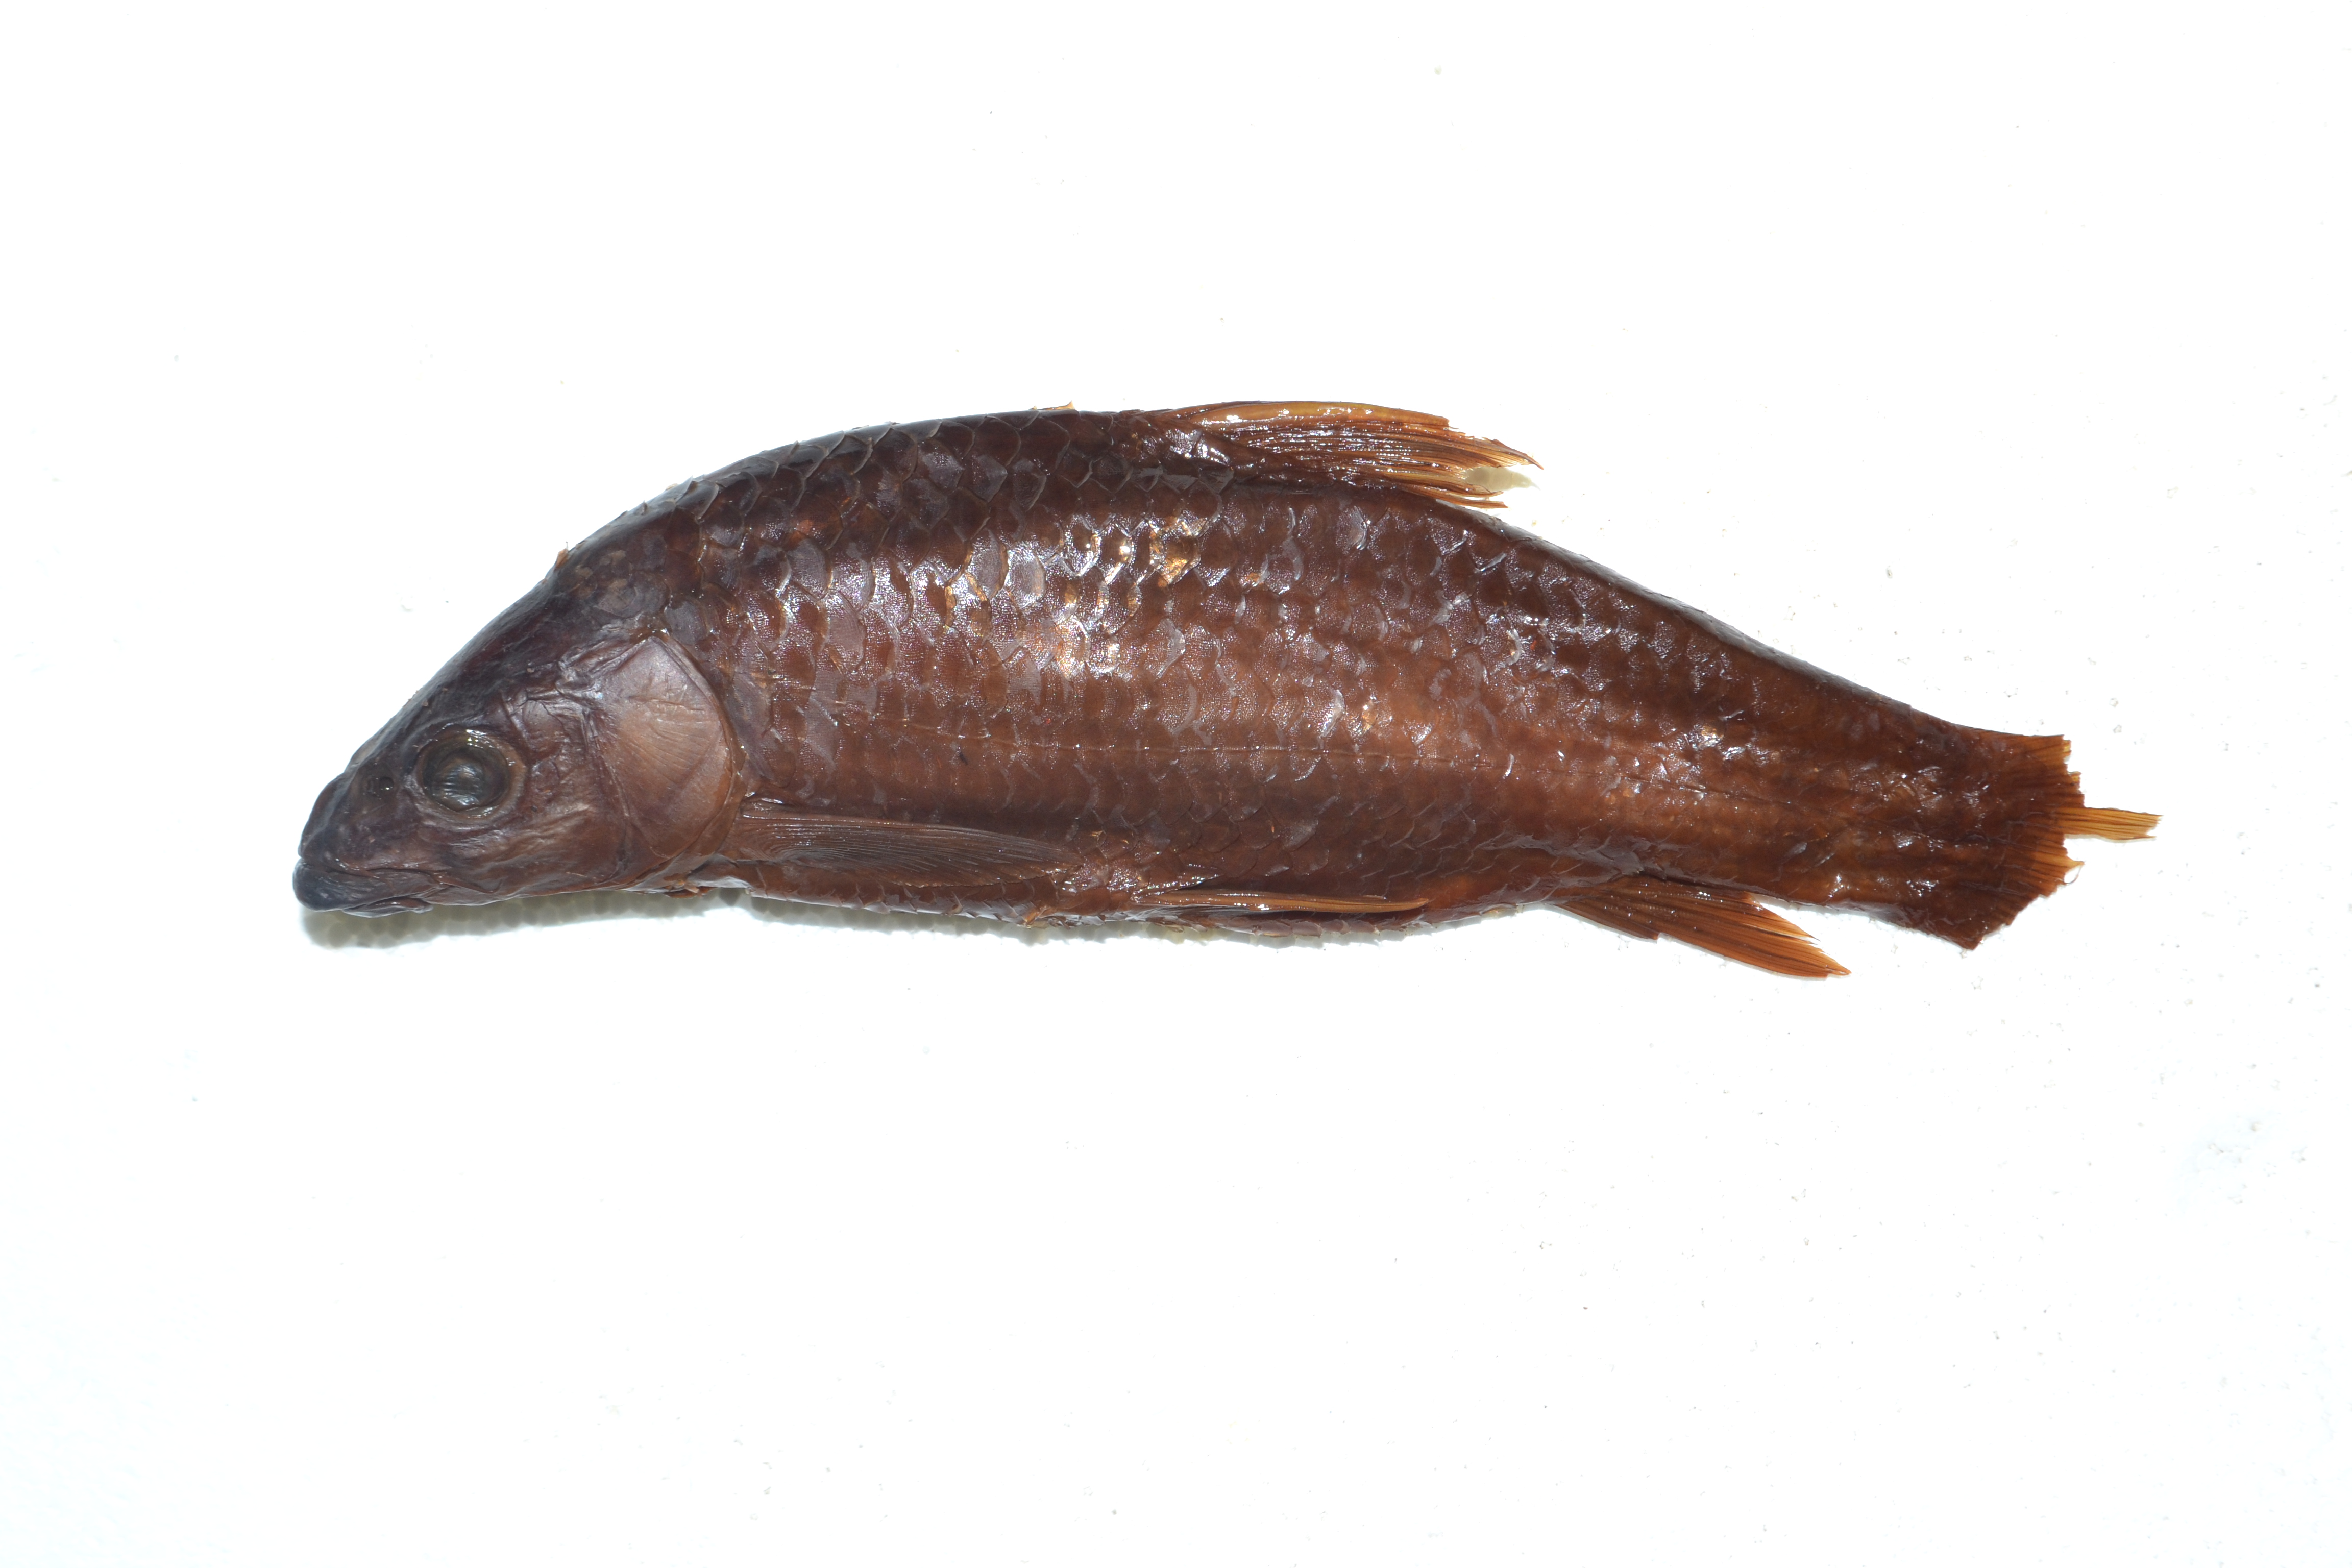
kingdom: Animalia
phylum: Chordata
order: Cypriniformes
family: Cyprinidae
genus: Labeobarbus
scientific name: Labeobarbus natalensis
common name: Scaly
